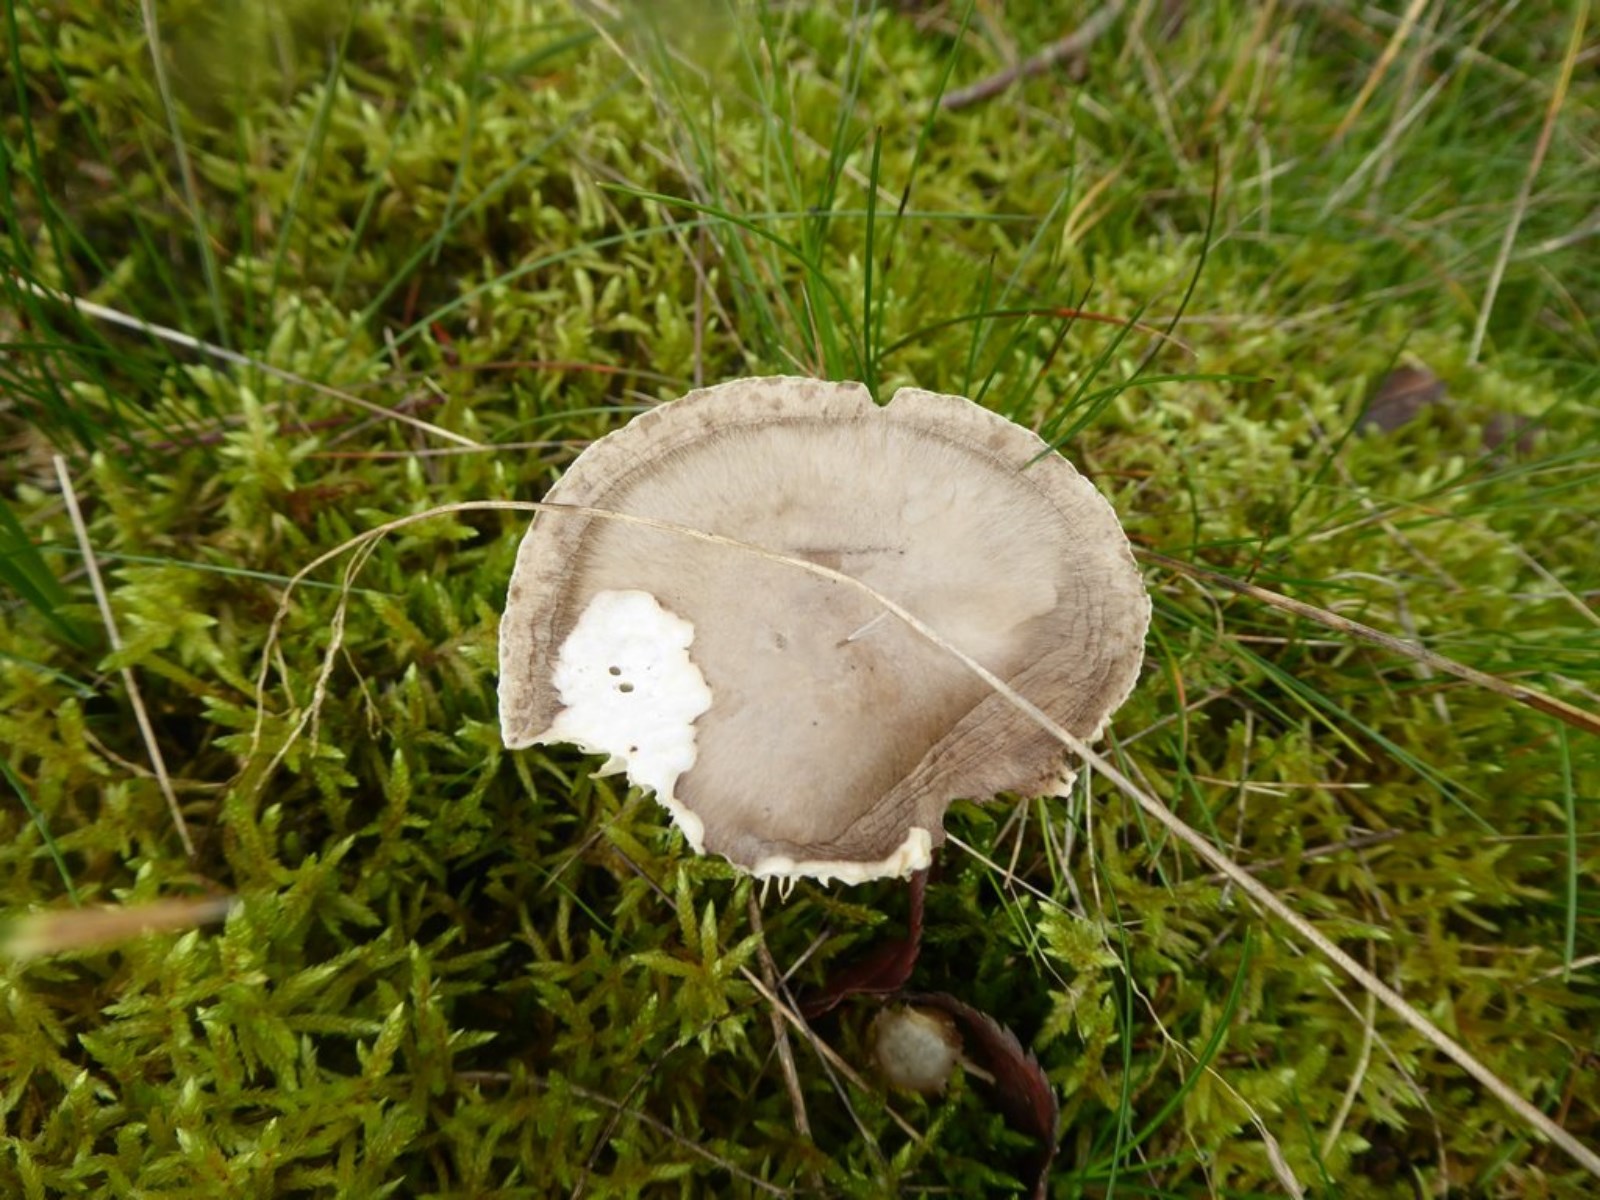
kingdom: Fungi
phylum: Basidiomycota
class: Agaricomycetes
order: Agaricales
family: Hygrophoraceae
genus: Ampulloclitocybe
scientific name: Ampulloclitocybe clavipes
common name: køllefod
